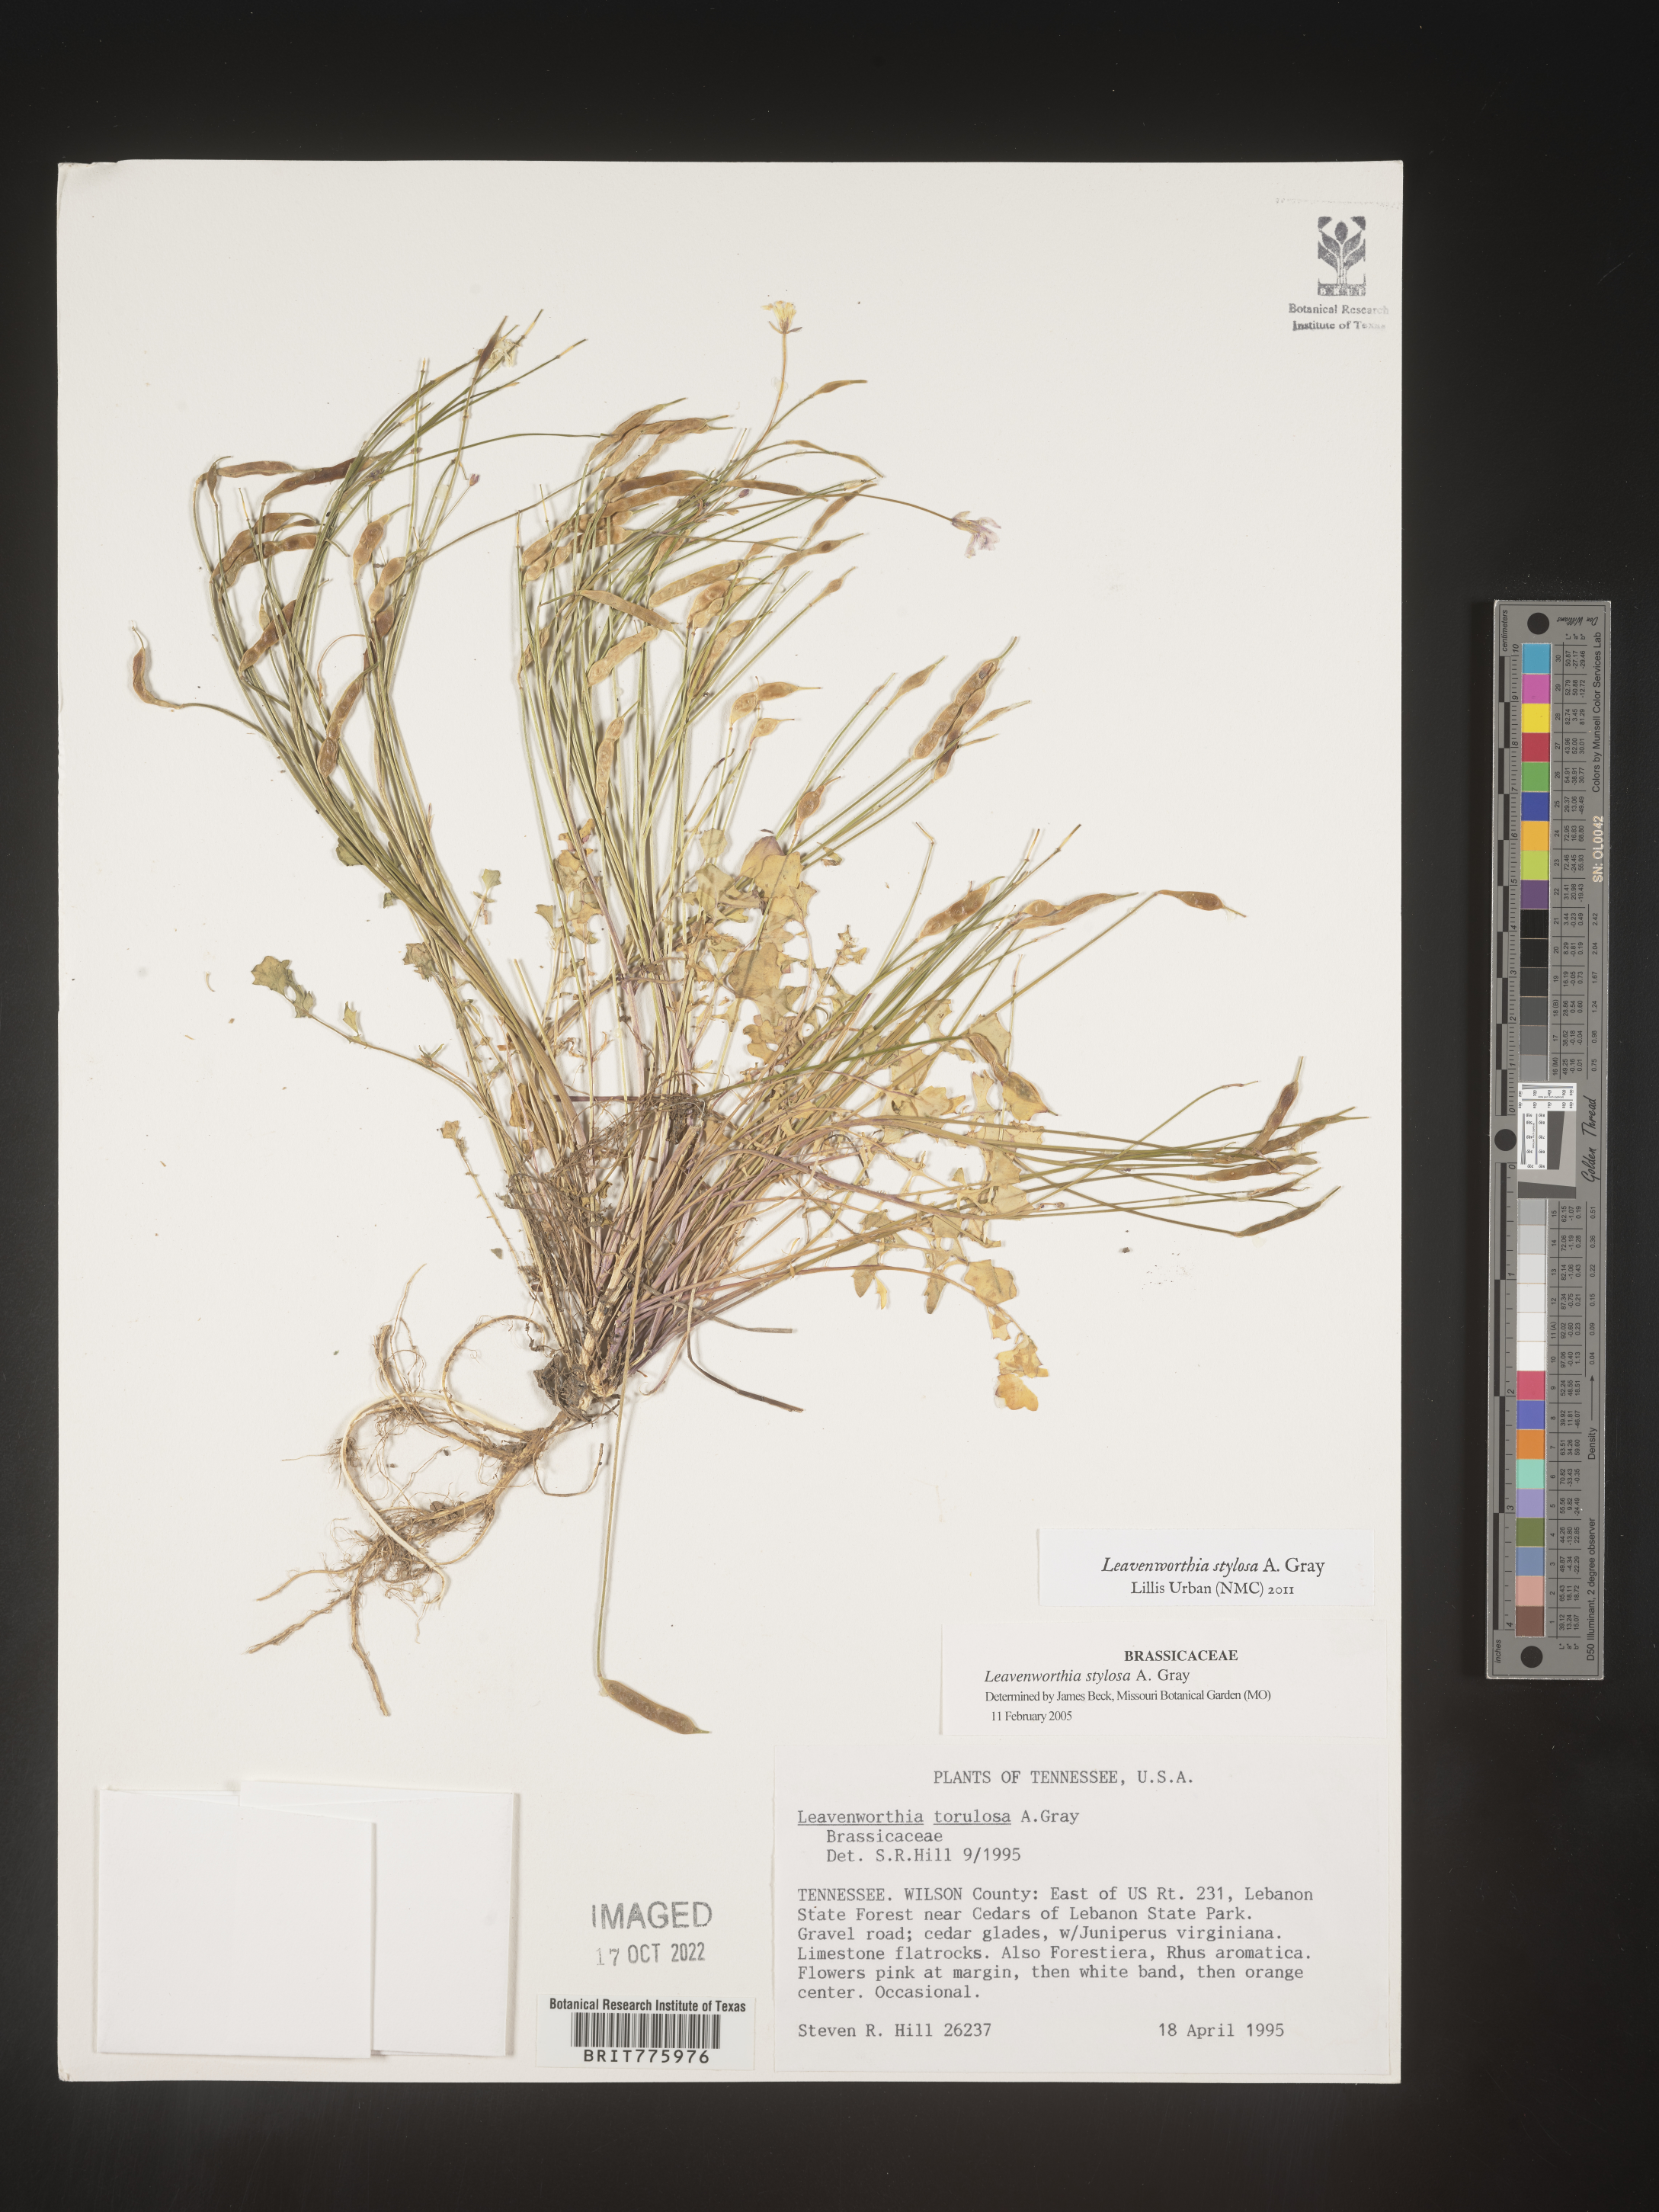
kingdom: Plantae
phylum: Tracheophyta
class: Magnoliopsida
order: Brassicales
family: Brassicaceae
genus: Leavenworthia
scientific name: Leavenworthia
